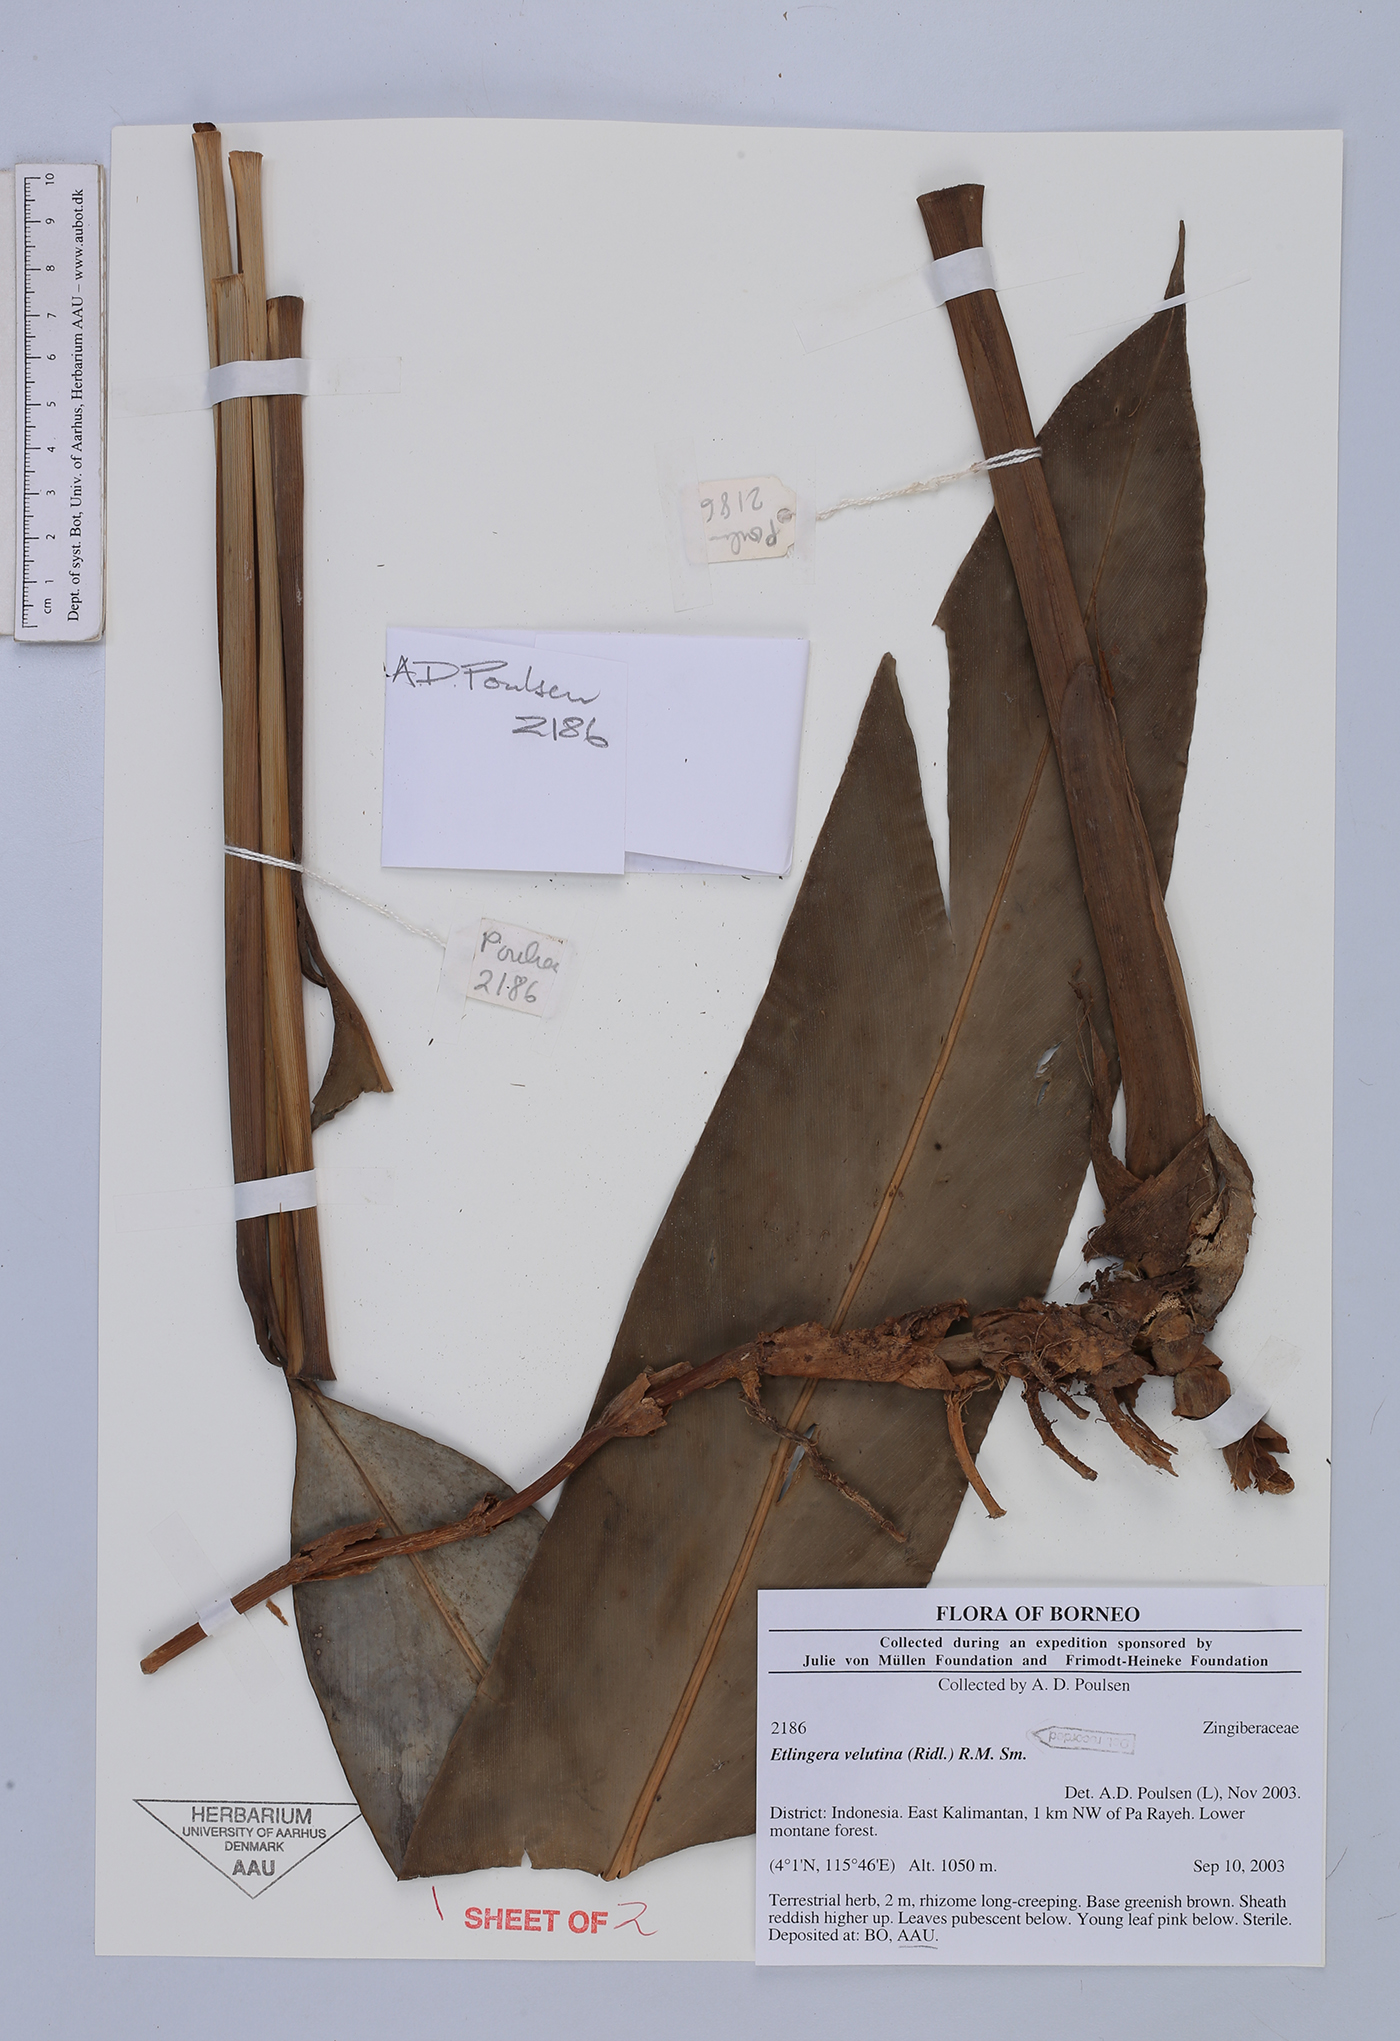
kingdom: Plantae
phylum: Tracheophyta
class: Liliopsida
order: Zingiberales
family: Zingiberaceae
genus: Etlingera
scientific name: Etlingera velutina
